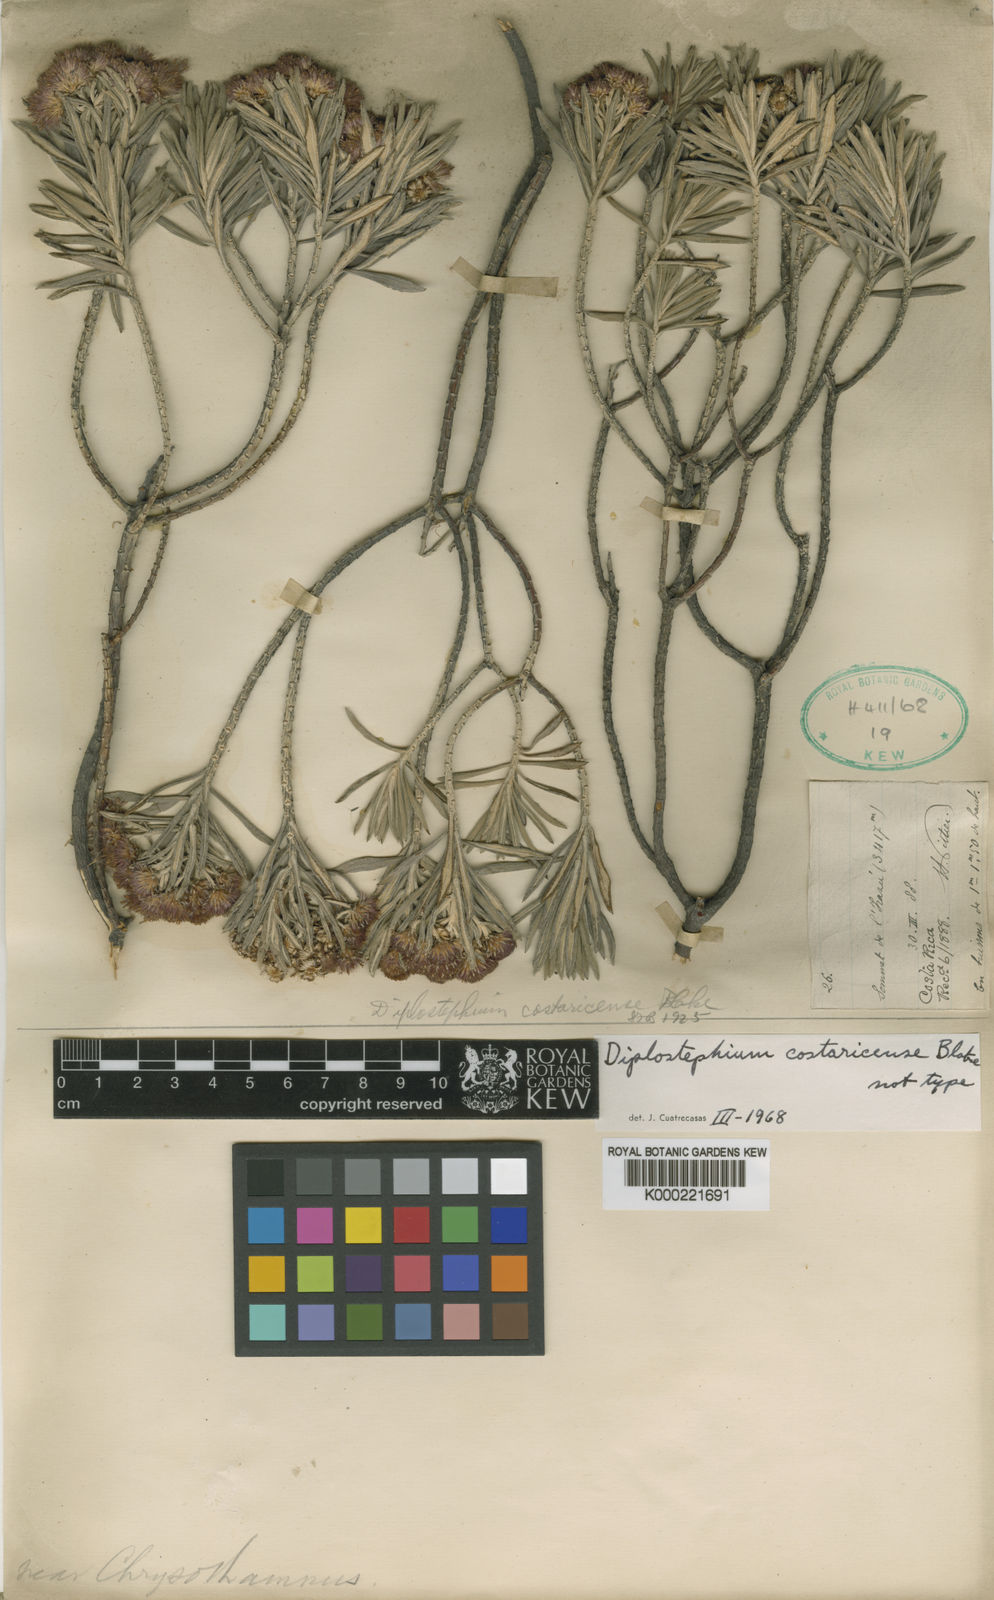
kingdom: Plantae
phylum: Tracheophyta
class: Magnoliopsida
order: Asterales
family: Asteraceae
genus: Linochilus
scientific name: Linochilus rosmarinifolius
